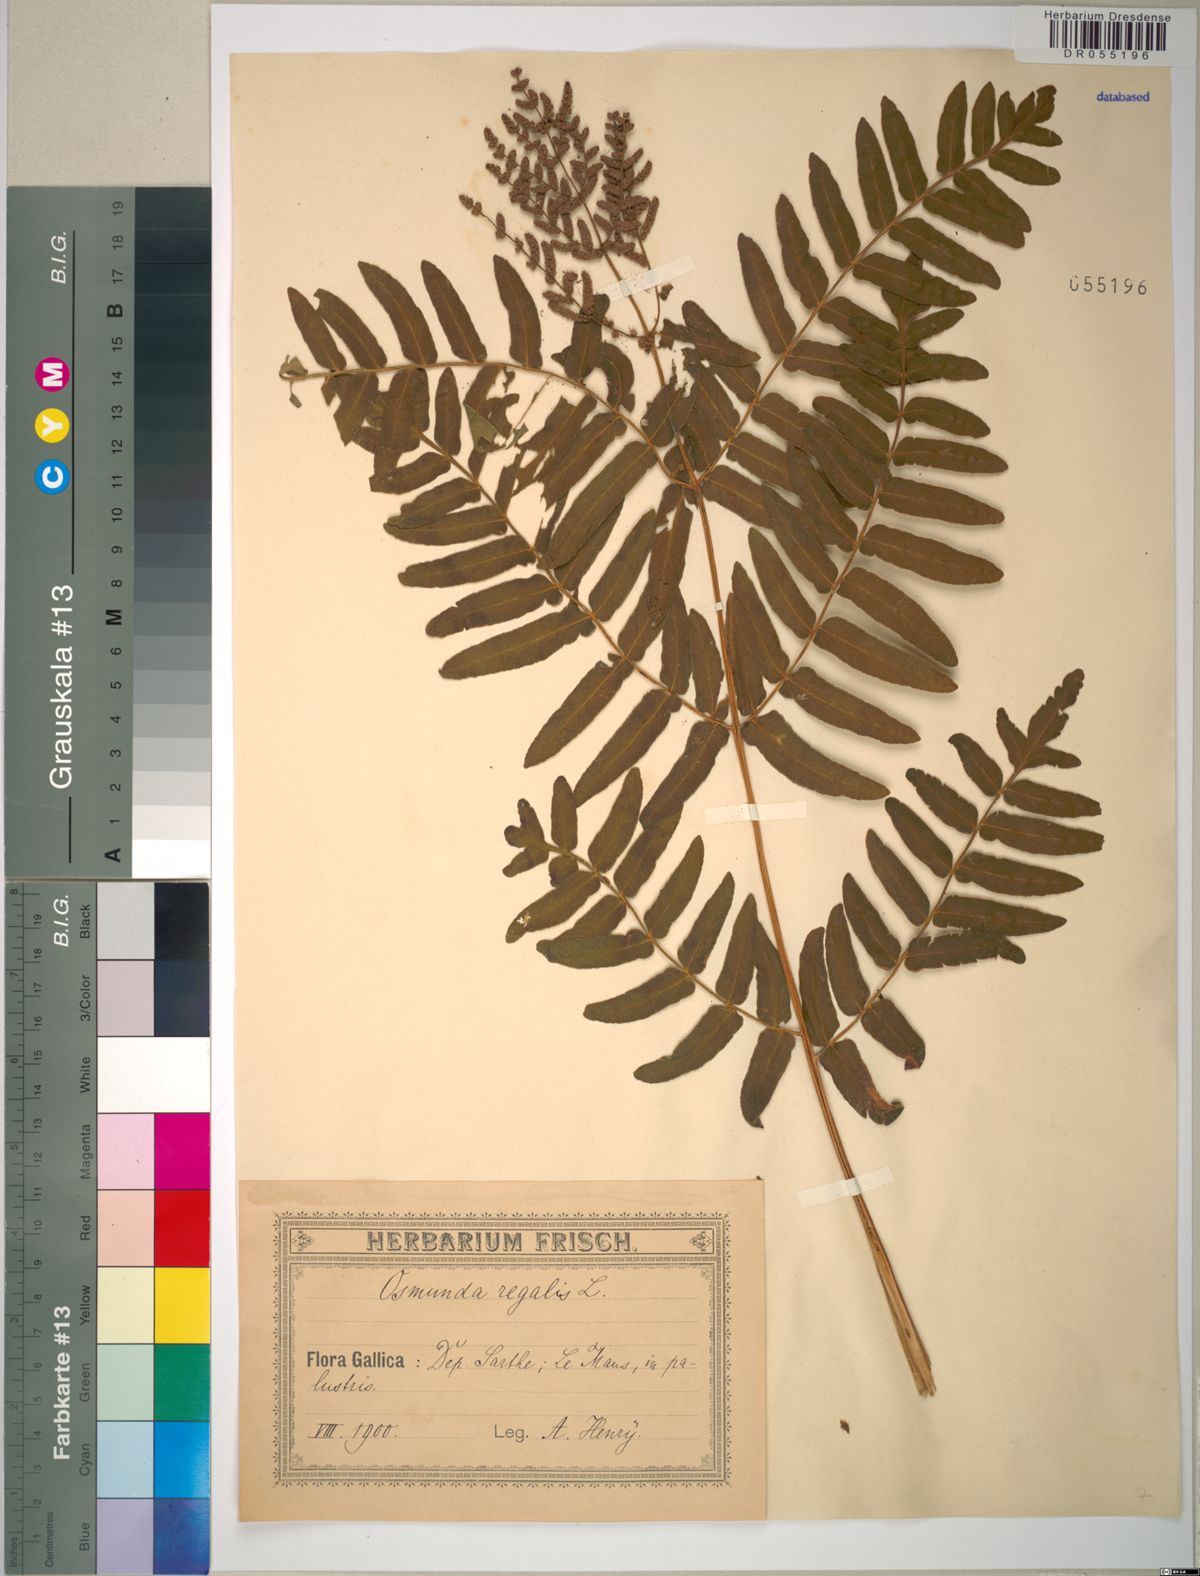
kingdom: Plantae
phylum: Tracheophyta
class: Polypodiopsida
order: Osmundales
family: Osmundaceae
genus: Osmunda
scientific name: Osmunda regalis
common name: Royal fern
